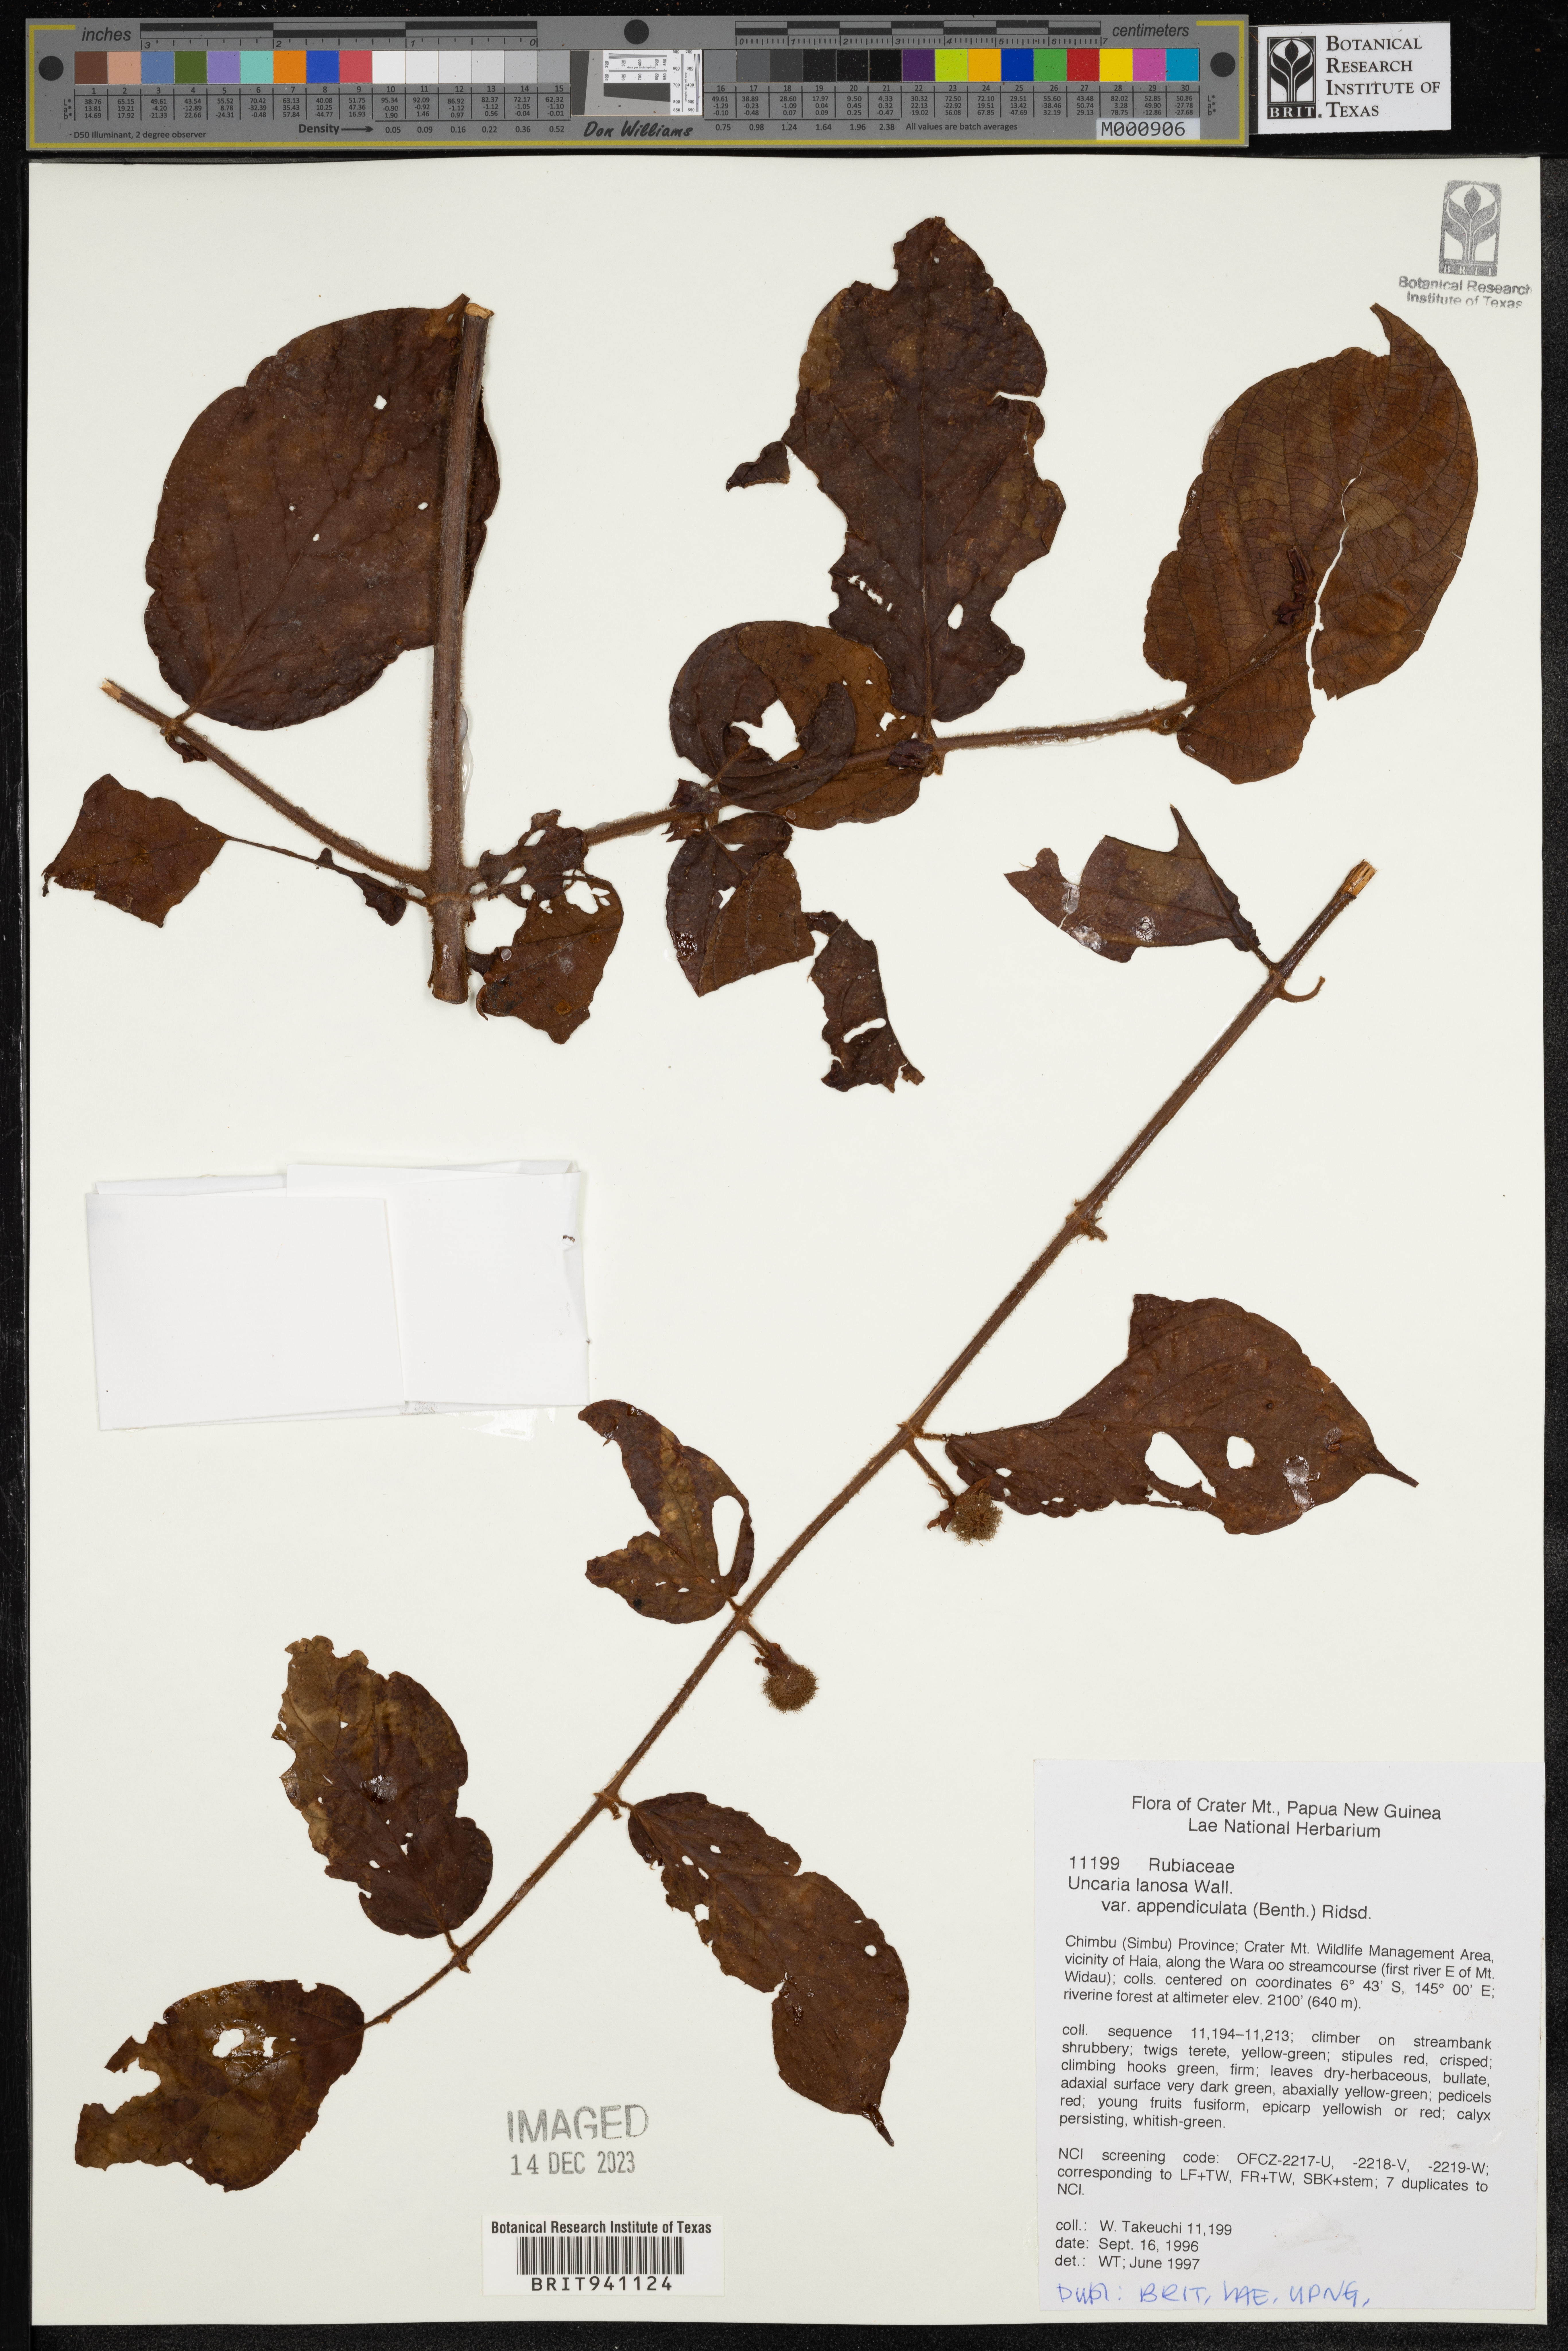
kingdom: Plantae
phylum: Tracheophyta
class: Magnoliopsida
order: Gentianales
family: Rubiaceae
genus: Uncaria
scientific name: Uncaria
